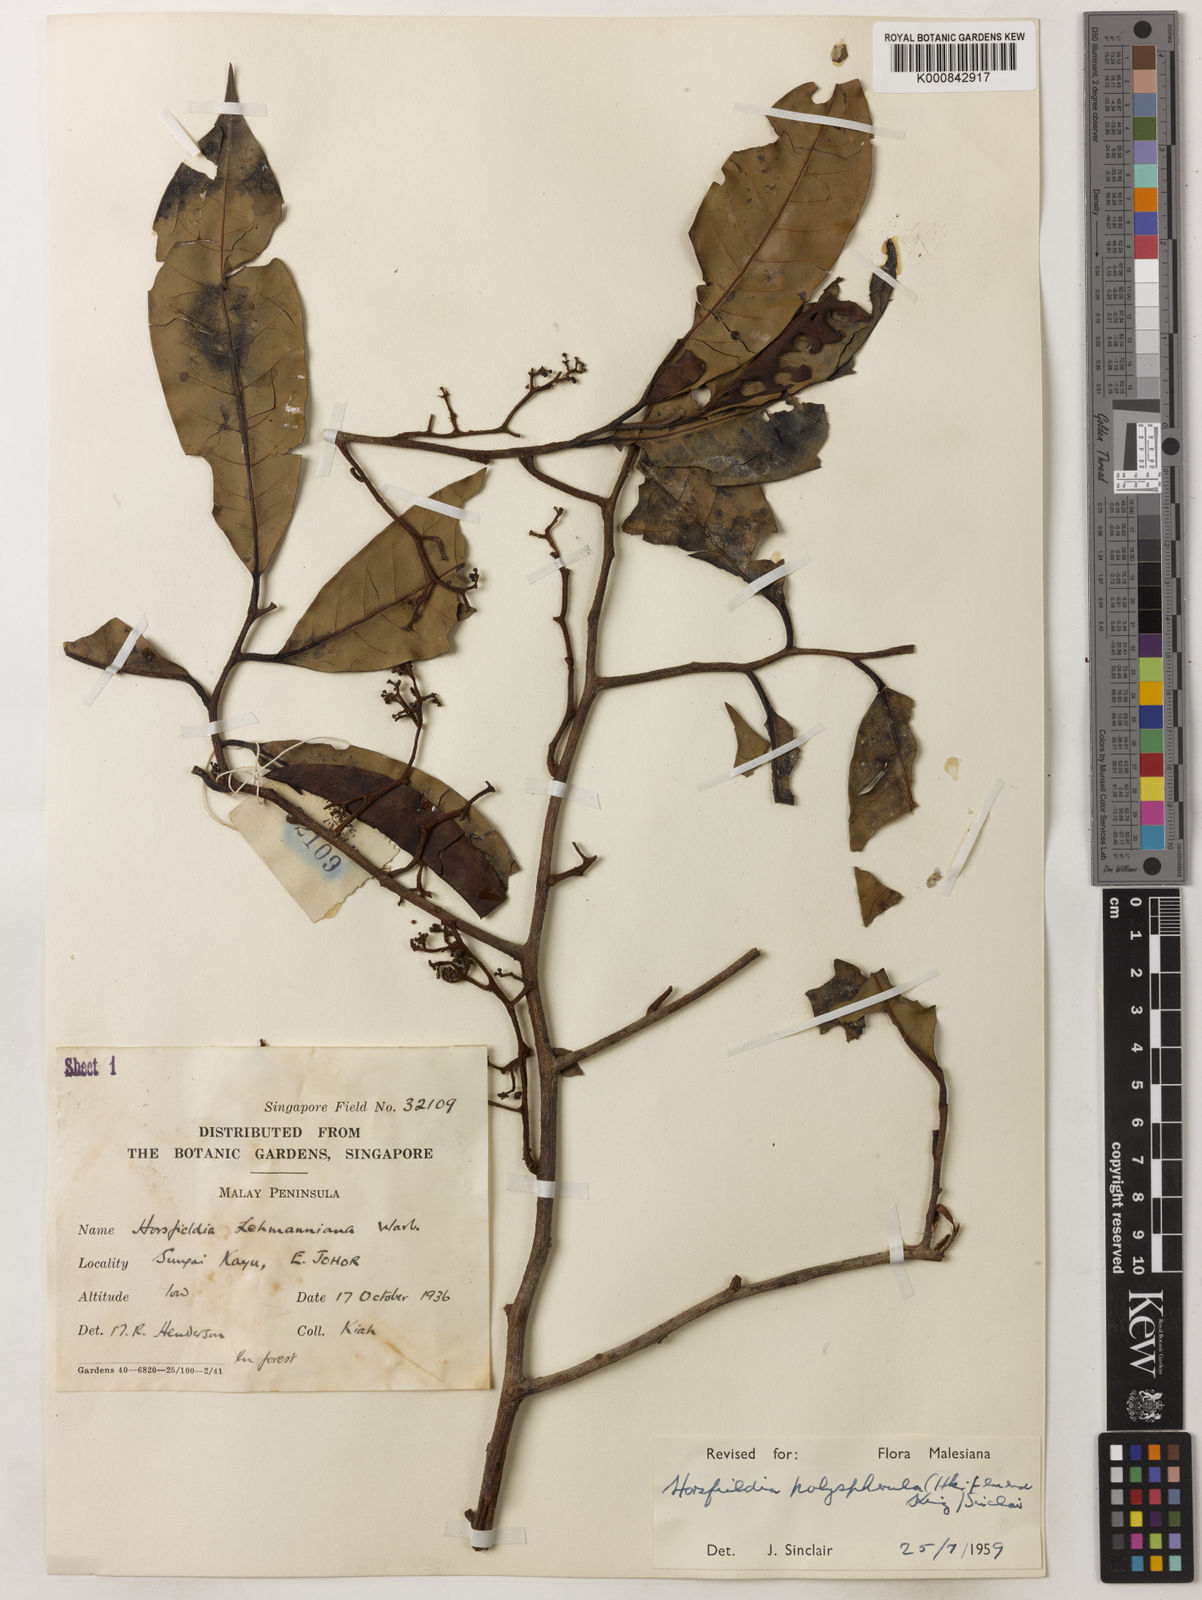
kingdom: Plantae
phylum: Tracheophyta
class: Magnoliopsida
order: Magnoliales
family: Myristicaceae
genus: Horsfieldia
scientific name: Horsfieldia
